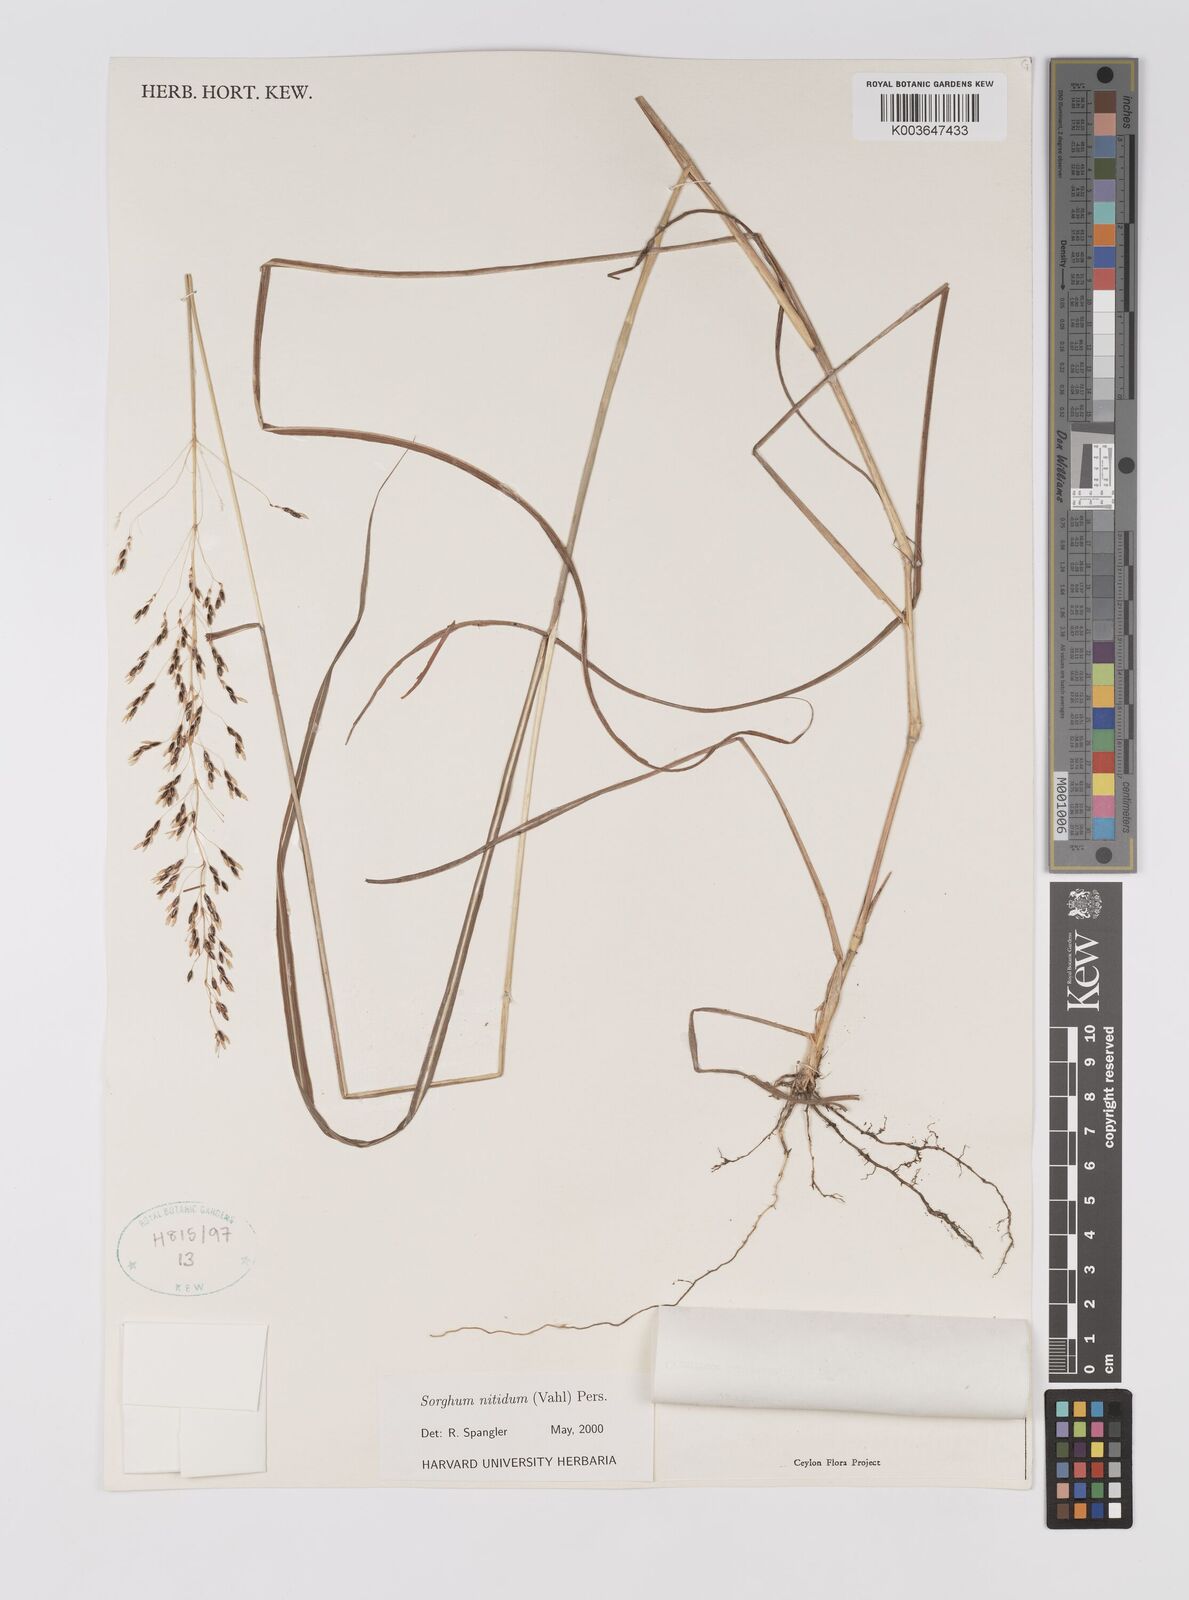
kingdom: Plantae
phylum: Tracheophyta
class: Liliopsida
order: Poales
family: Poaceae
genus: Sorghum
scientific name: Sorghum nitidum
